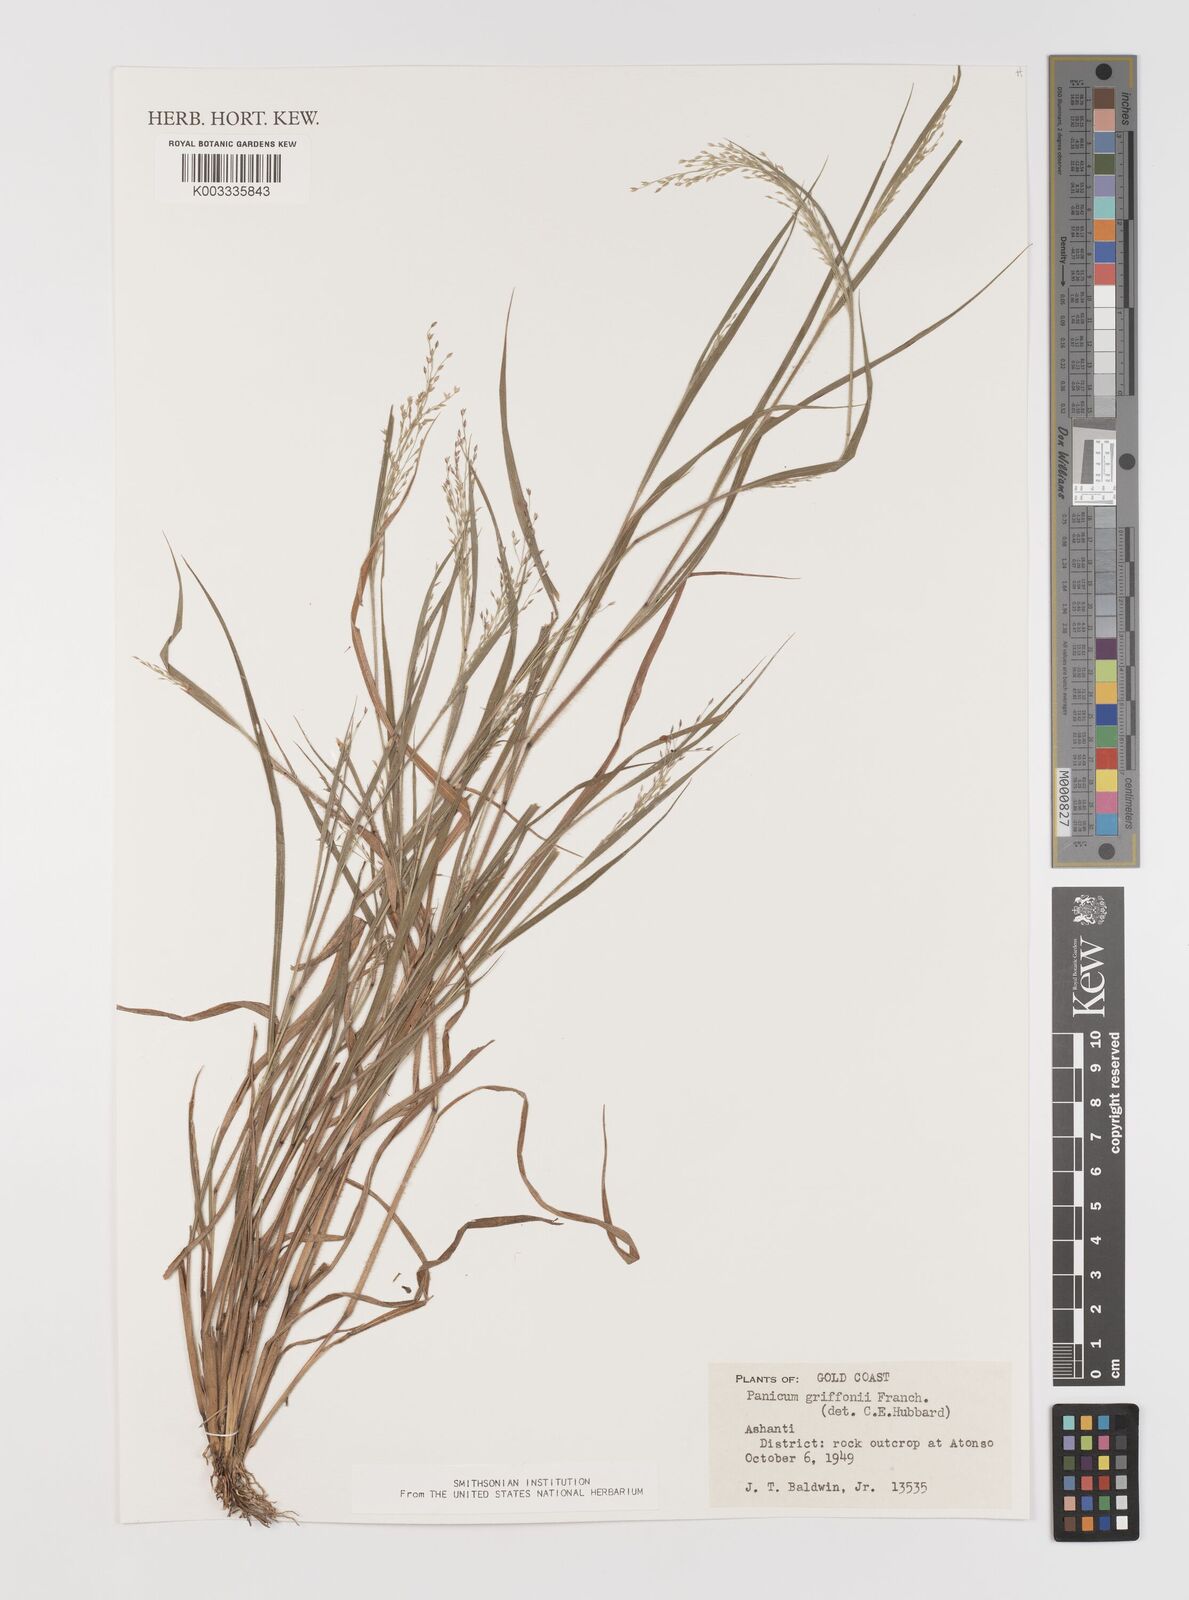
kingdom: Plantae
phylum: Tracheophyta
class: Liliopsida
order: Poales
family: Poaceae
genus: Panicum
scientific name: Panicum griffonii
